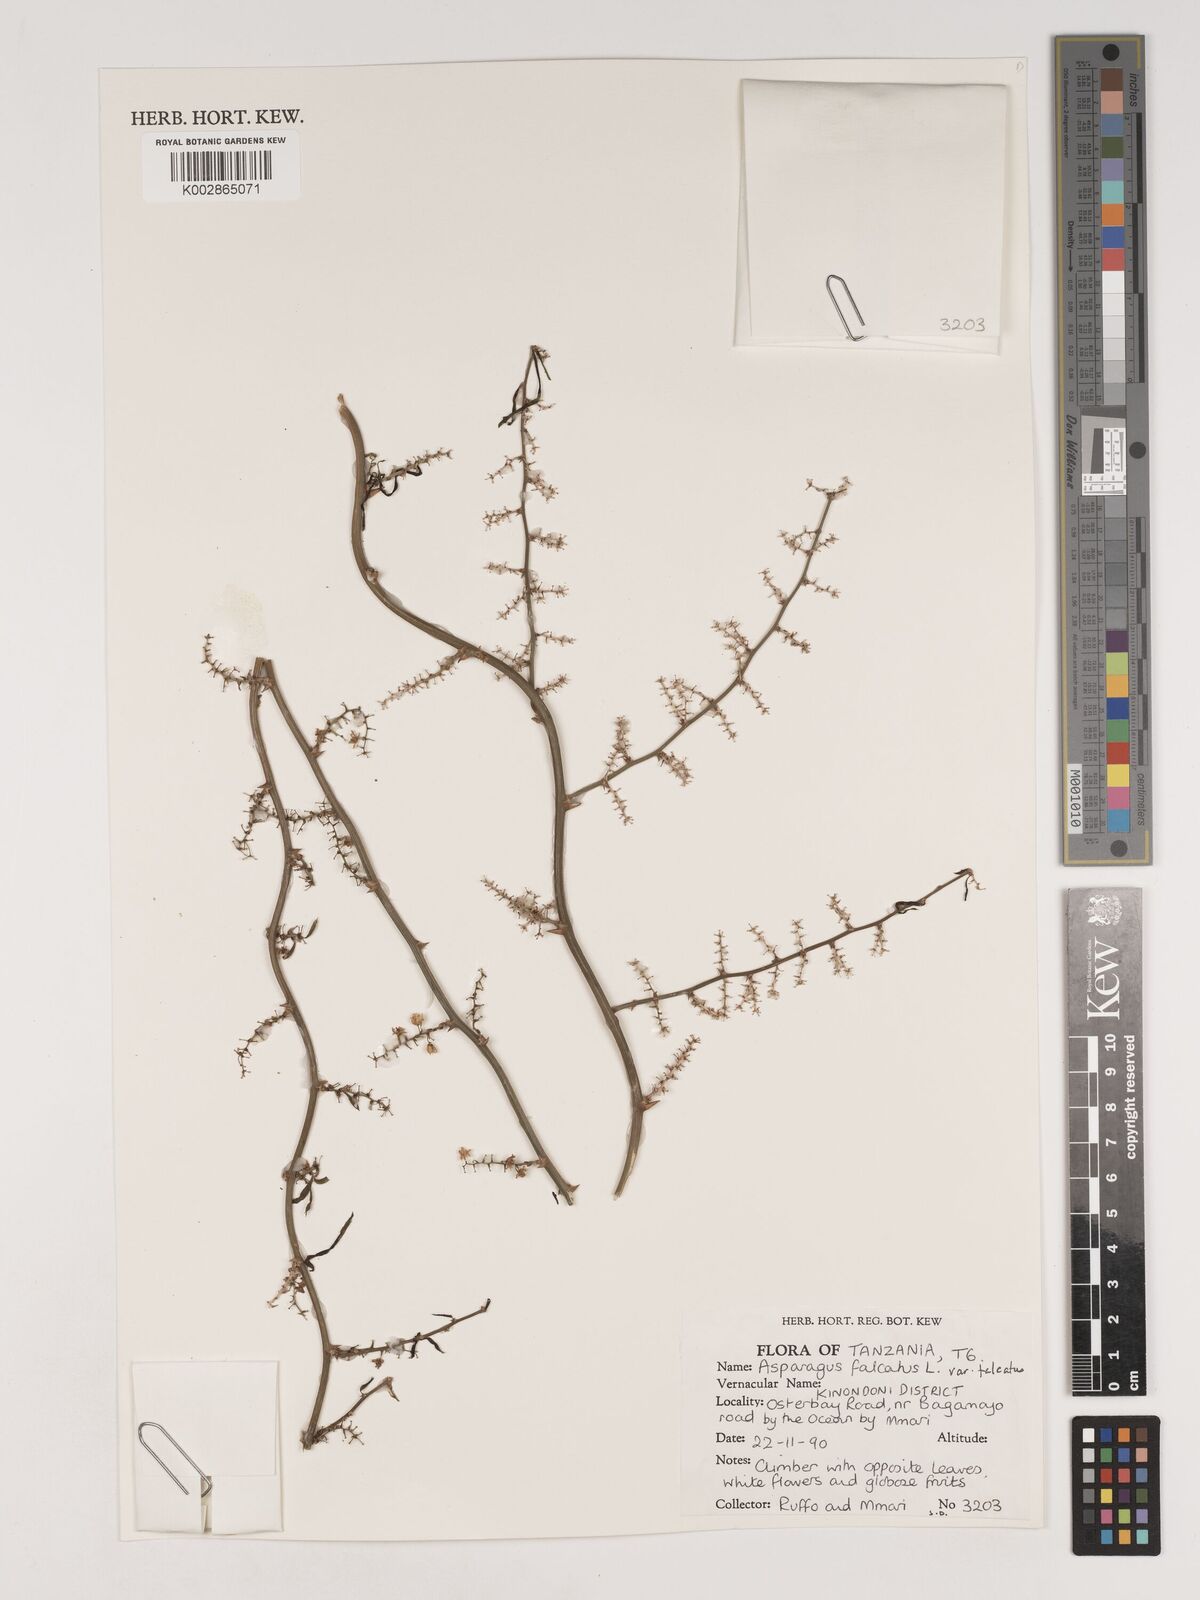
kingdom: Plantae
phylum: Tracheophyta
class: Liliopsida
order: Asparagales
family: Asparagaceae
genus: Asparagus
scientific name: Asparagus falcatus
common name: Asparagus
